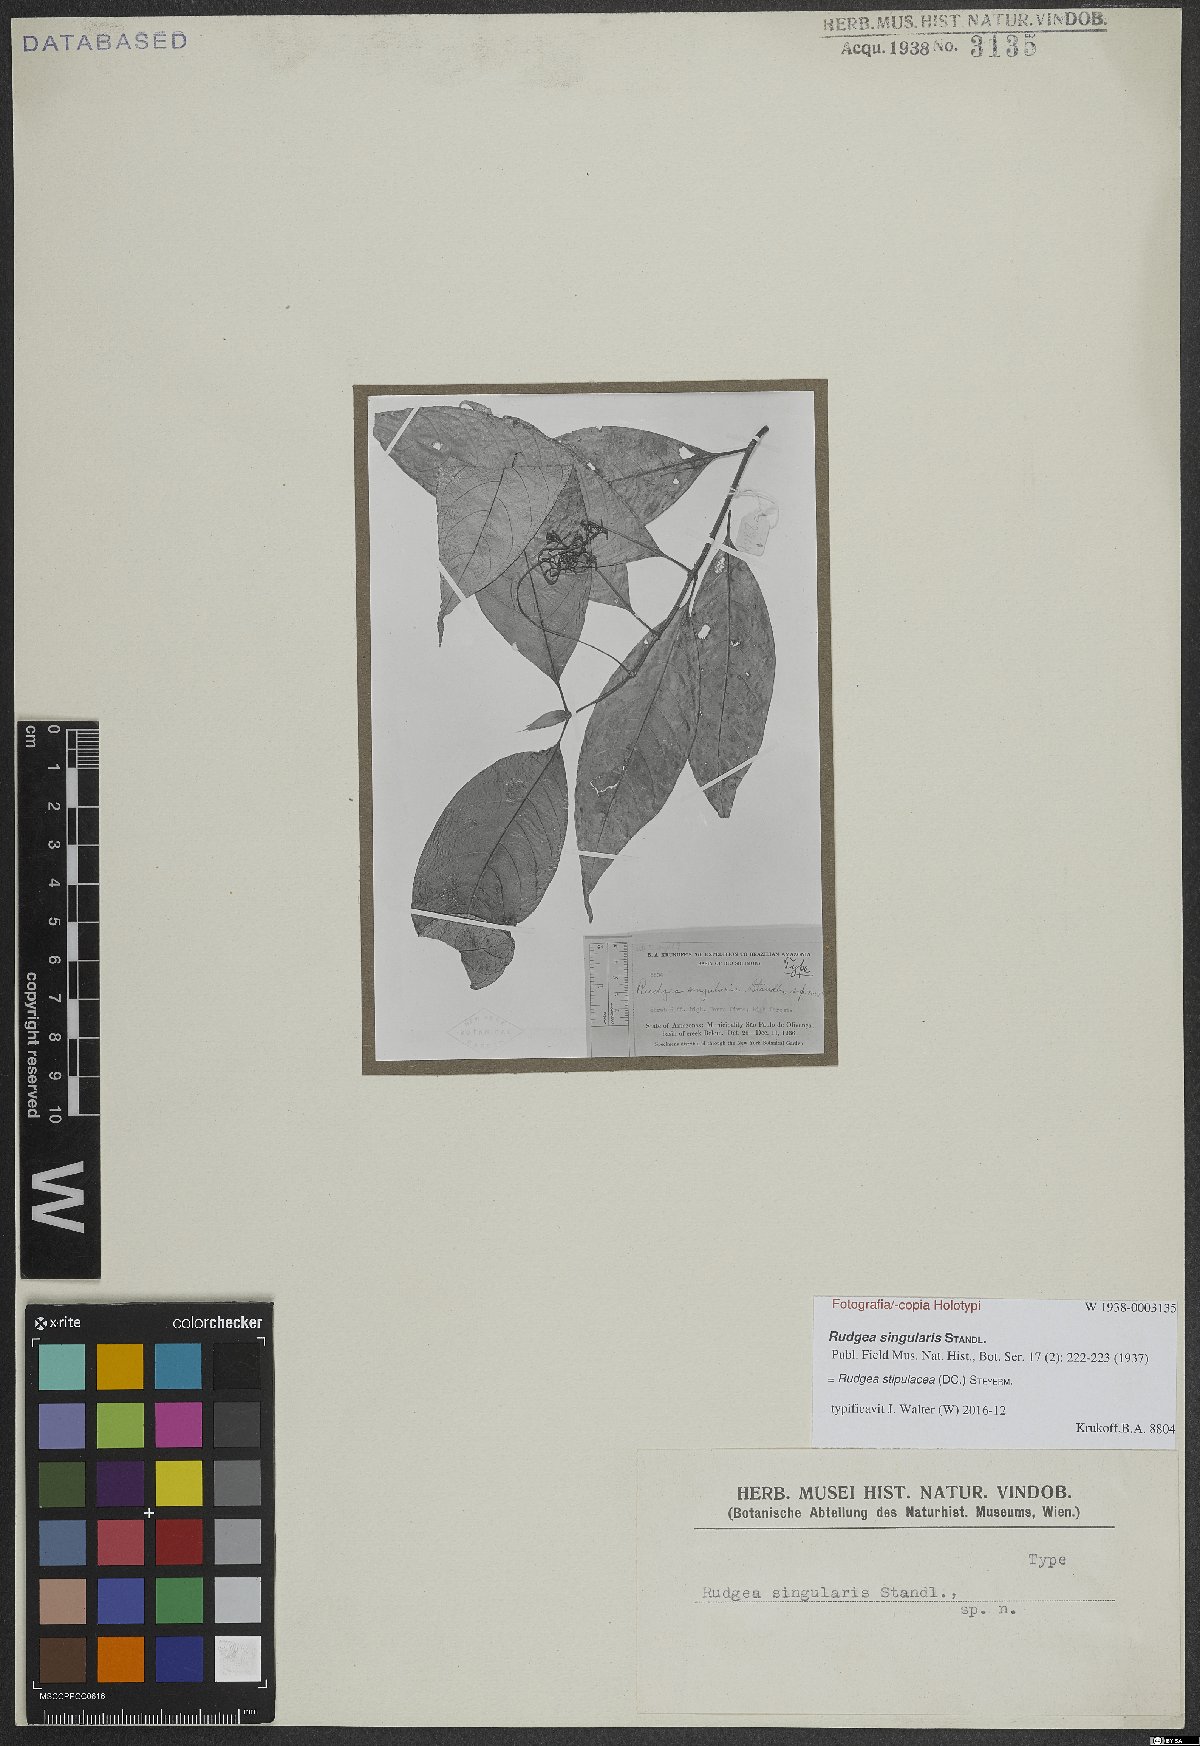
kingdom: Plantae
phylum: Tracheophyta
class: Magnoliopsida
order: Gentianales
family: Rubiaceae
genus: Rudgea
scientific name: Rudgea stipulacea
